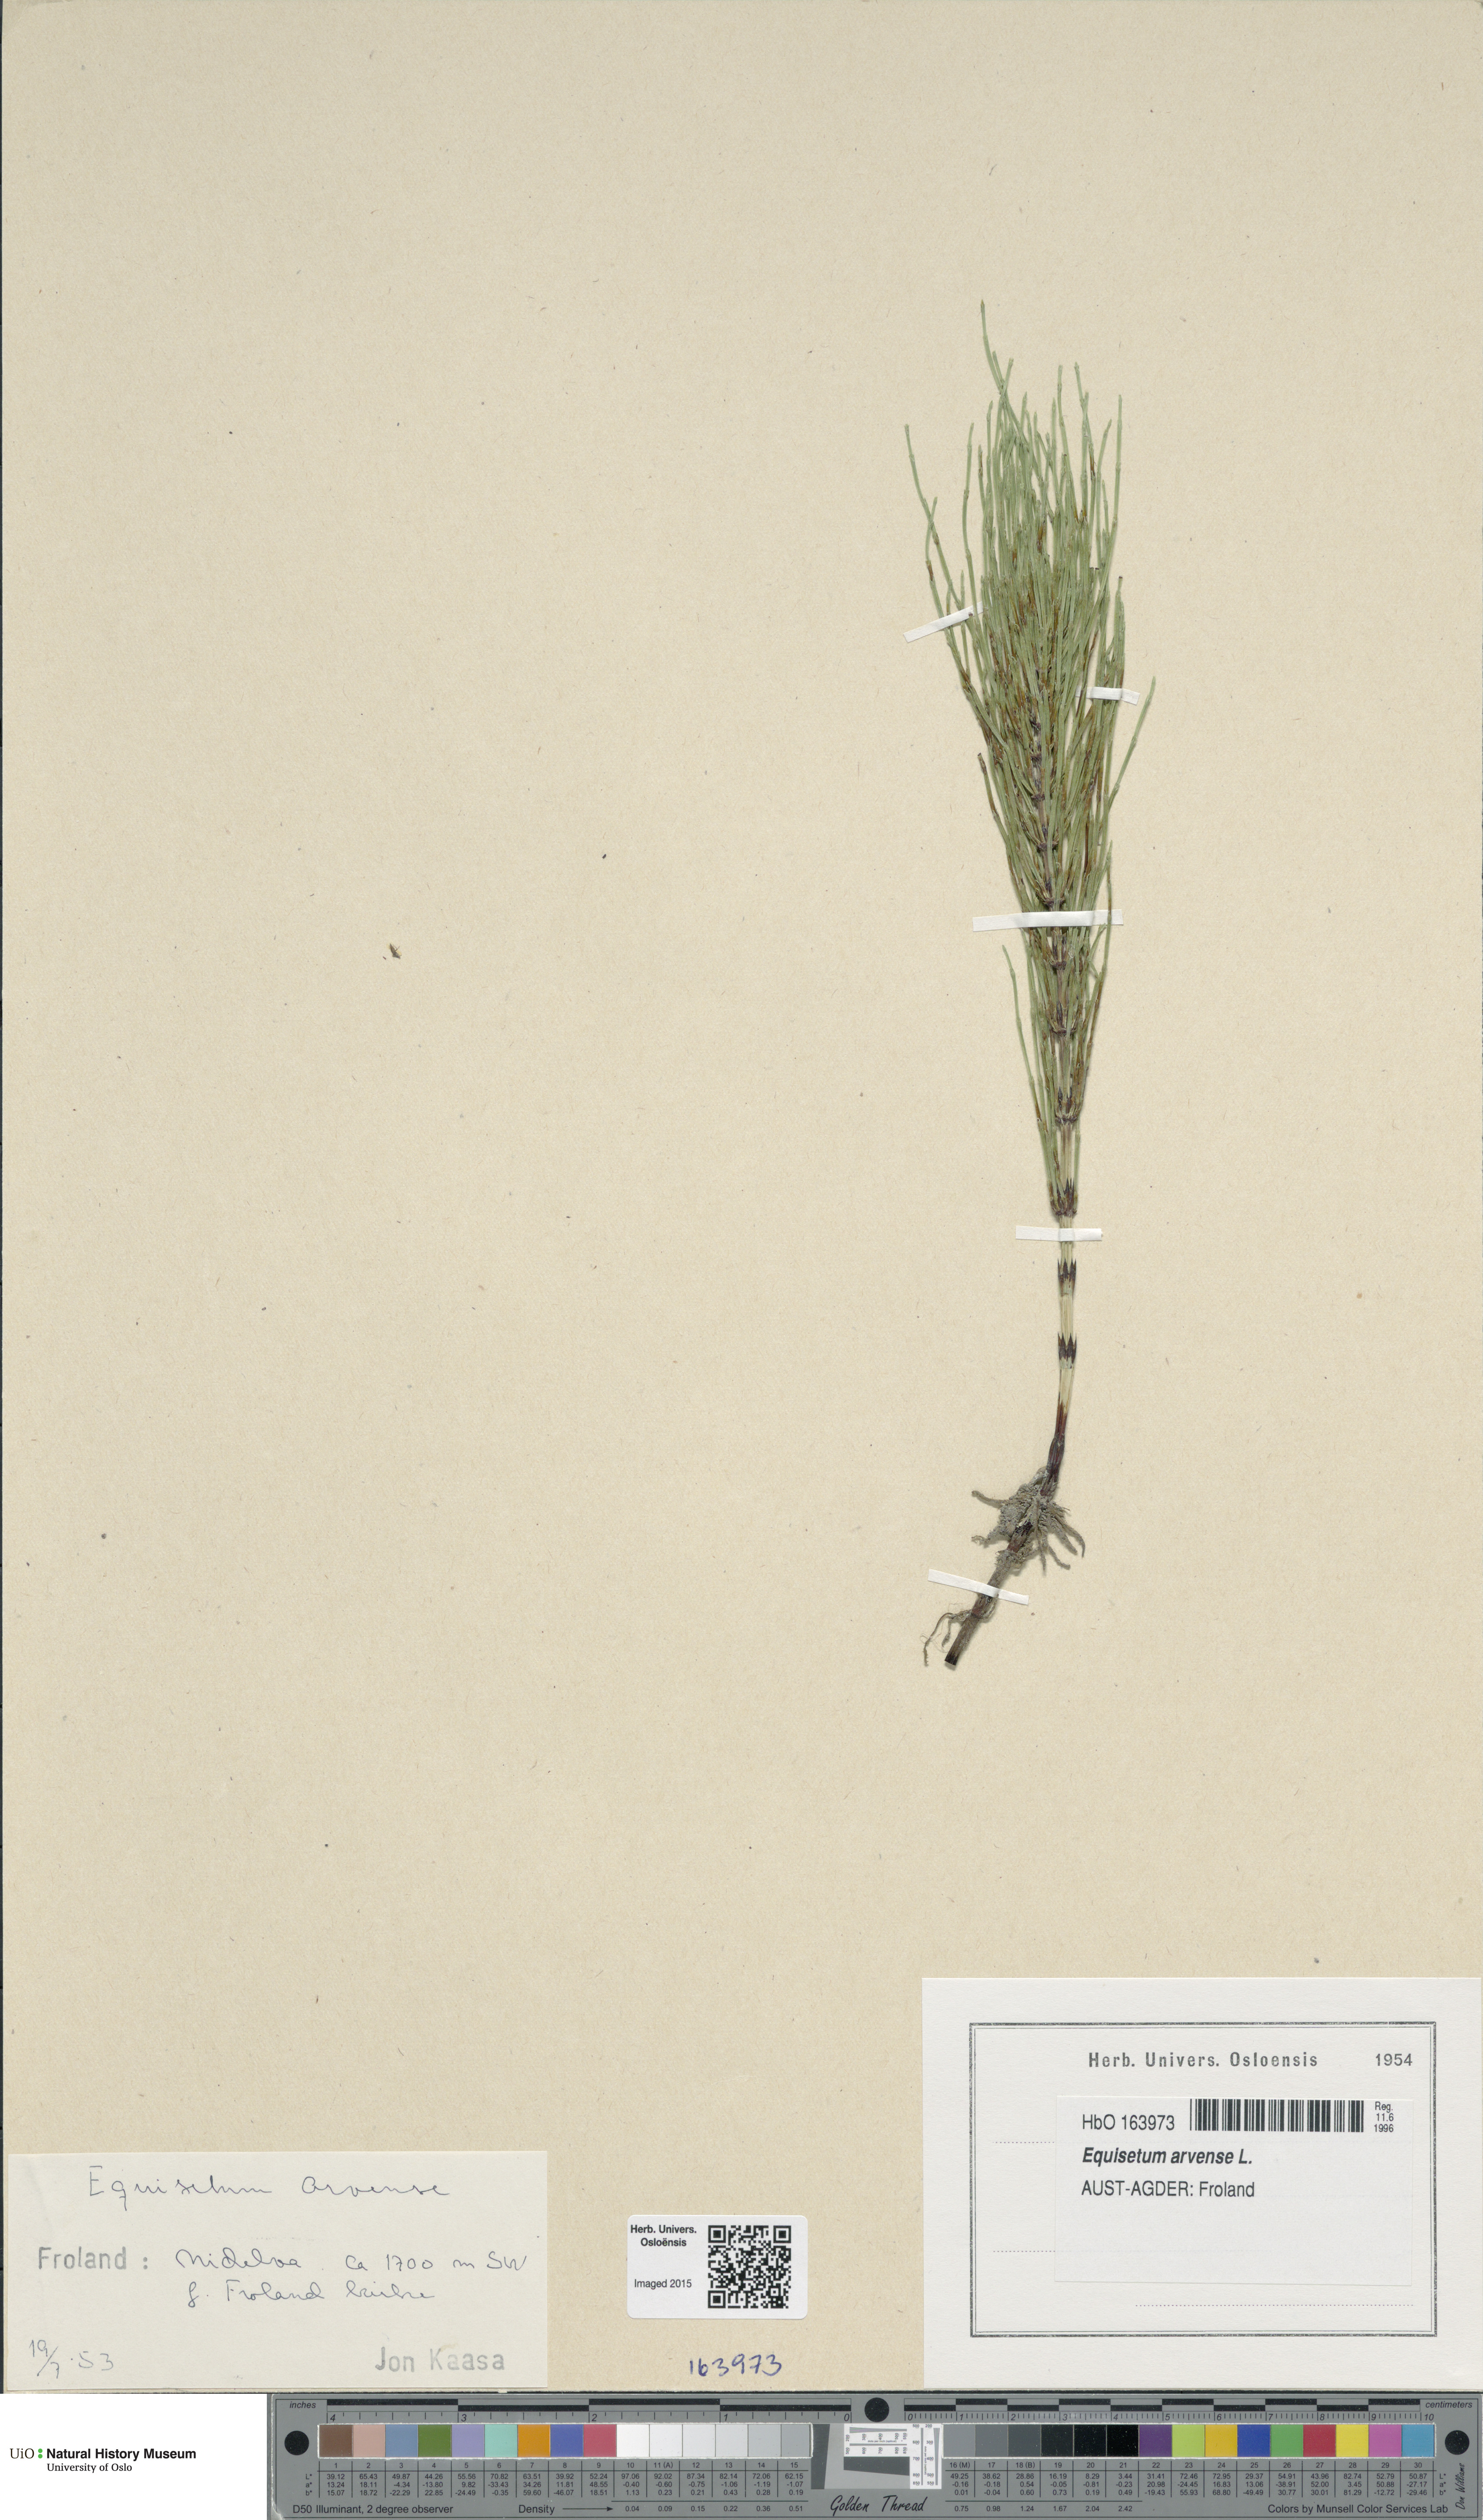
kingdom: Plantae
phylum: Tracheophyta
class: Polypodiopsida
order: Equisetales
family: Equisetaceae
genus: Equisetum
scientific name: Equisetum arvense
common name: Field horsetail
